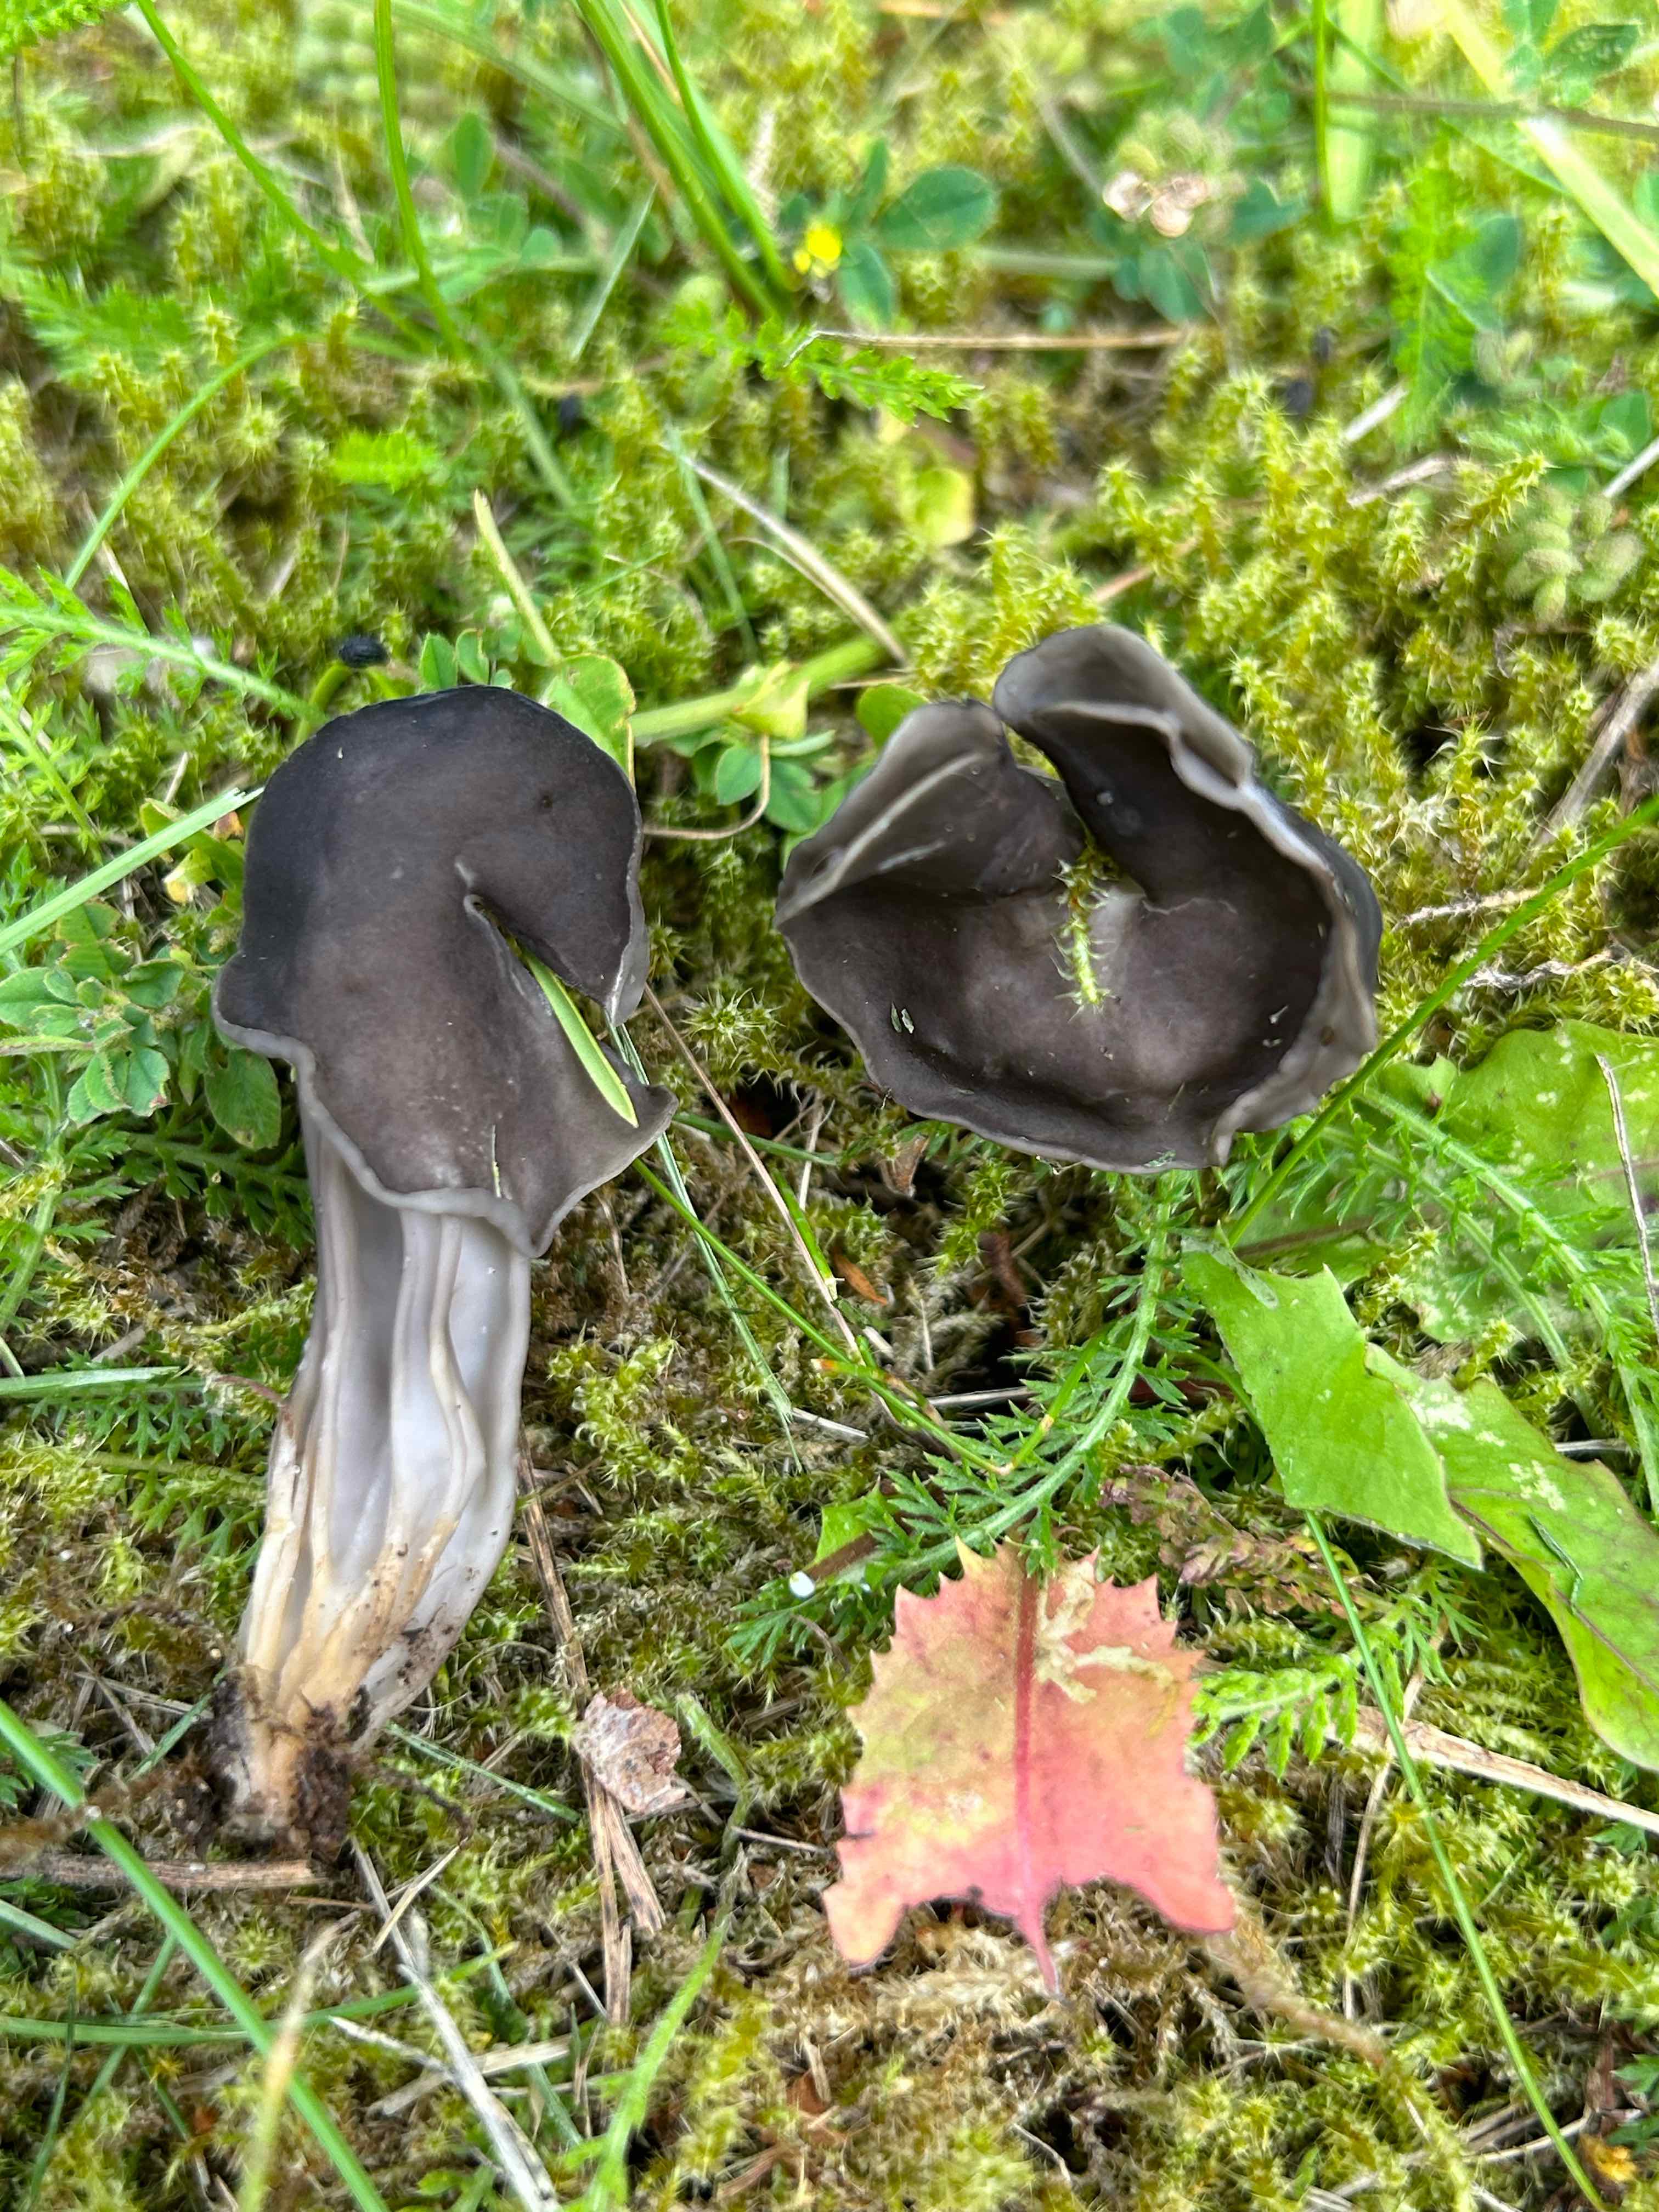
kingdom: Fungi
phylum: Ascomycota
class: Pezizomycetes
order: Pezizales
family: Helvellaceae
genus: Helvella
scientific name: Helvella lacunosa
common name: grubet foldhat
